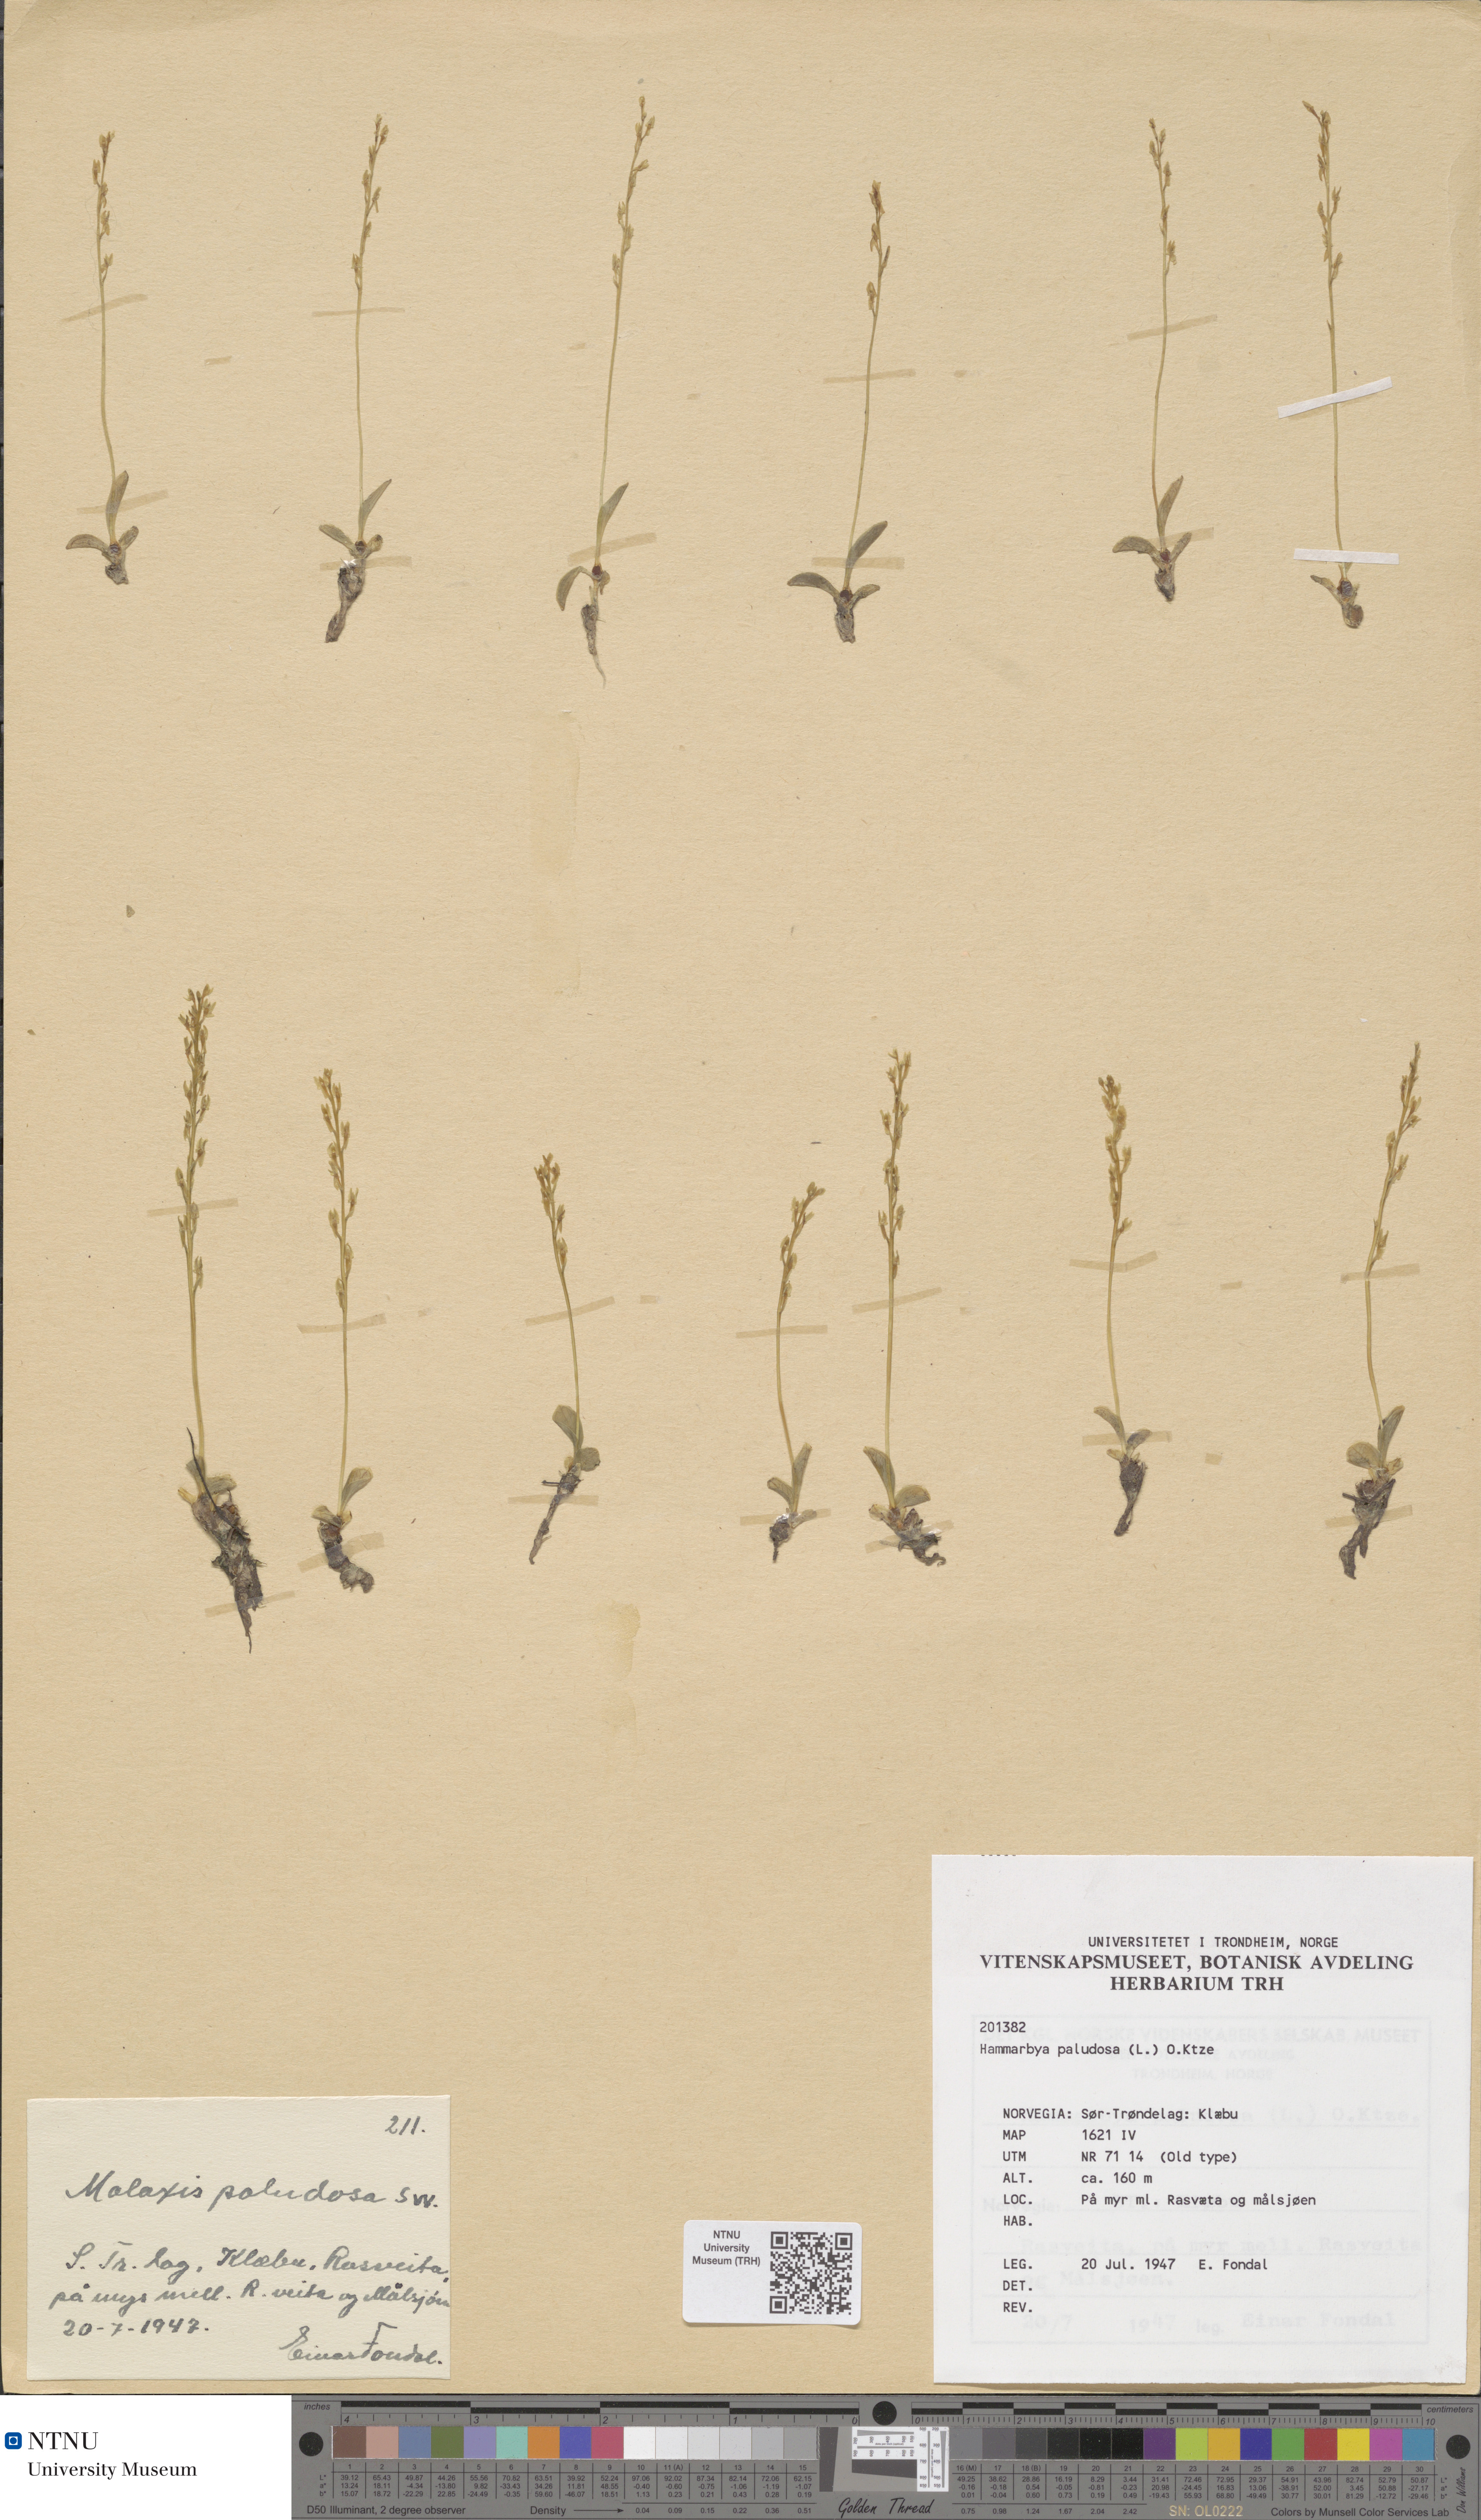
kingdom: Plantae
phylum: Tracheophyta
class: Liliopsida
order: Asparagales
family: Orchidaceae
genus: Hammarbya
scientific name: Hammarbya paludosa
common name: Bog orchid
